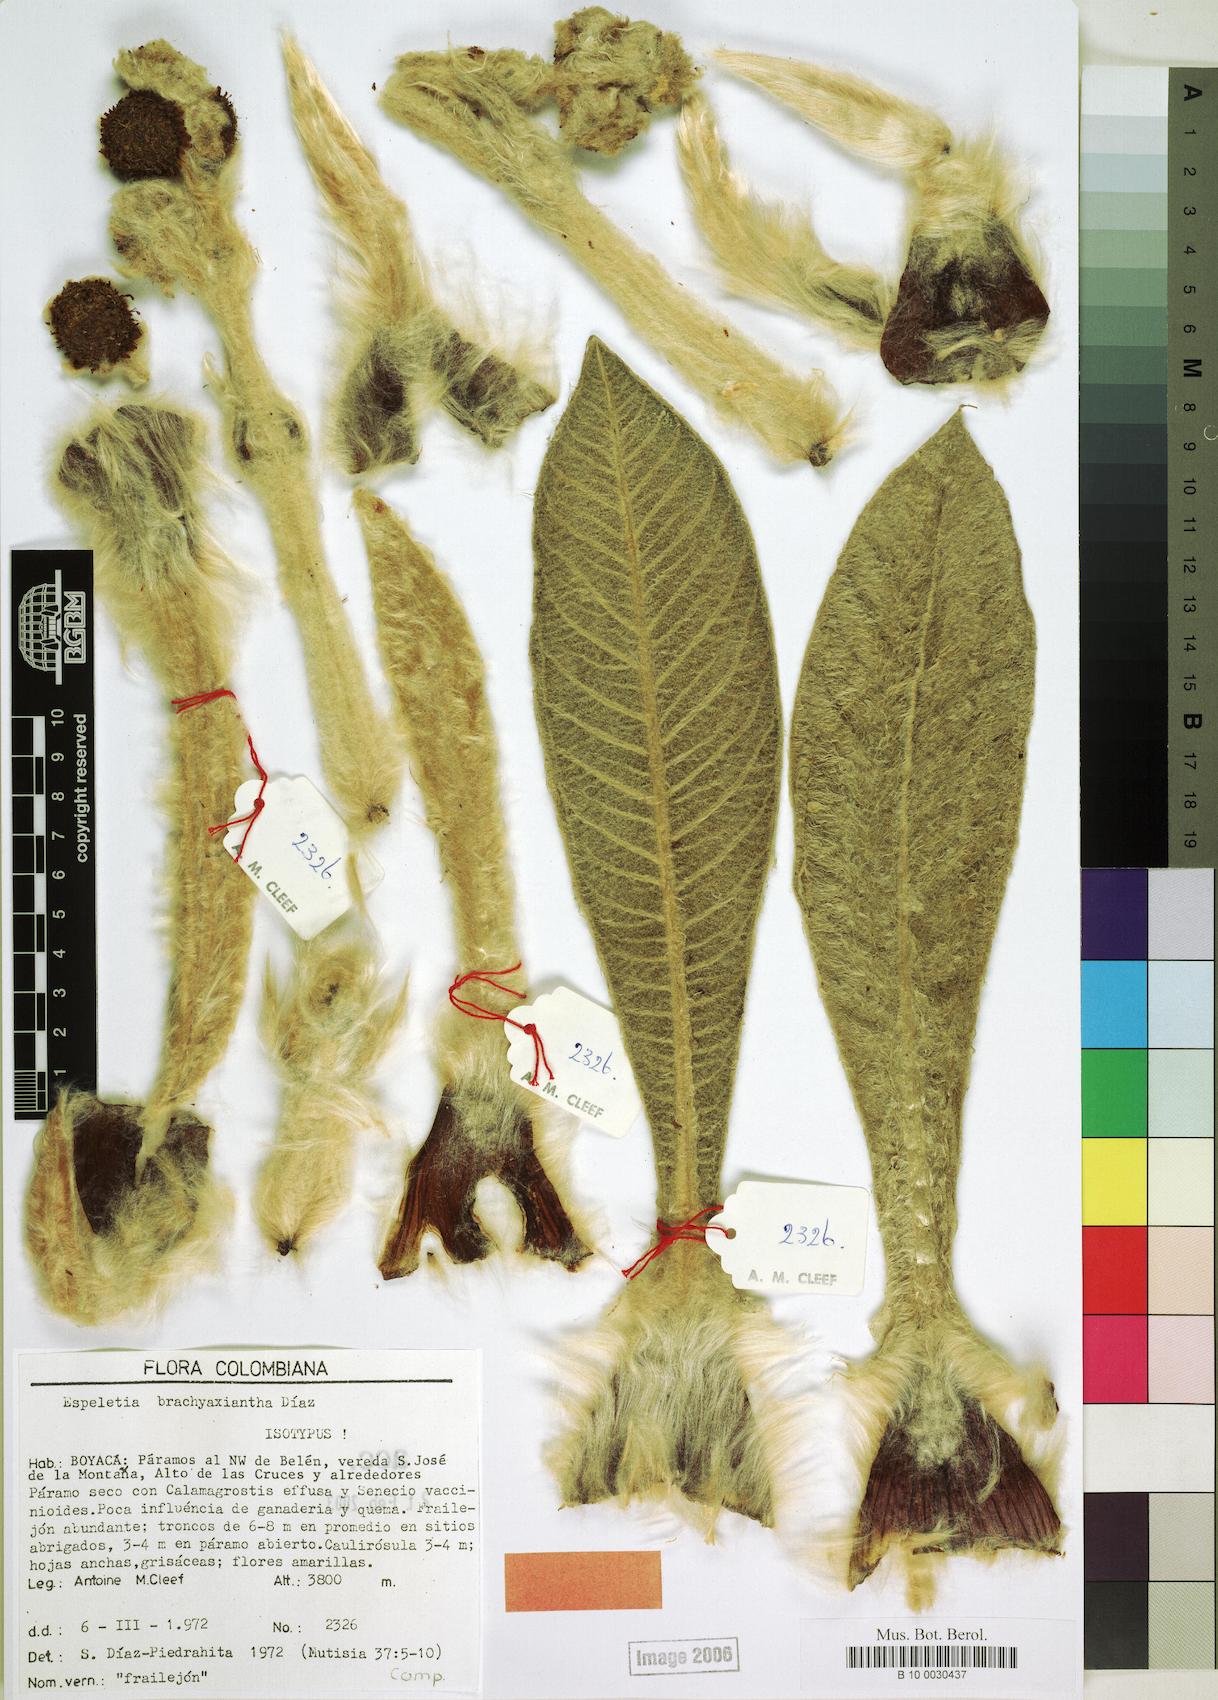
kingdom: Plantae
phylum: Tracheophyta
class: Magnoliopsida
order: Asterales
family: Asteraceae
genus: Espeletia
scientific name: Espeletia brachyaxiantha
